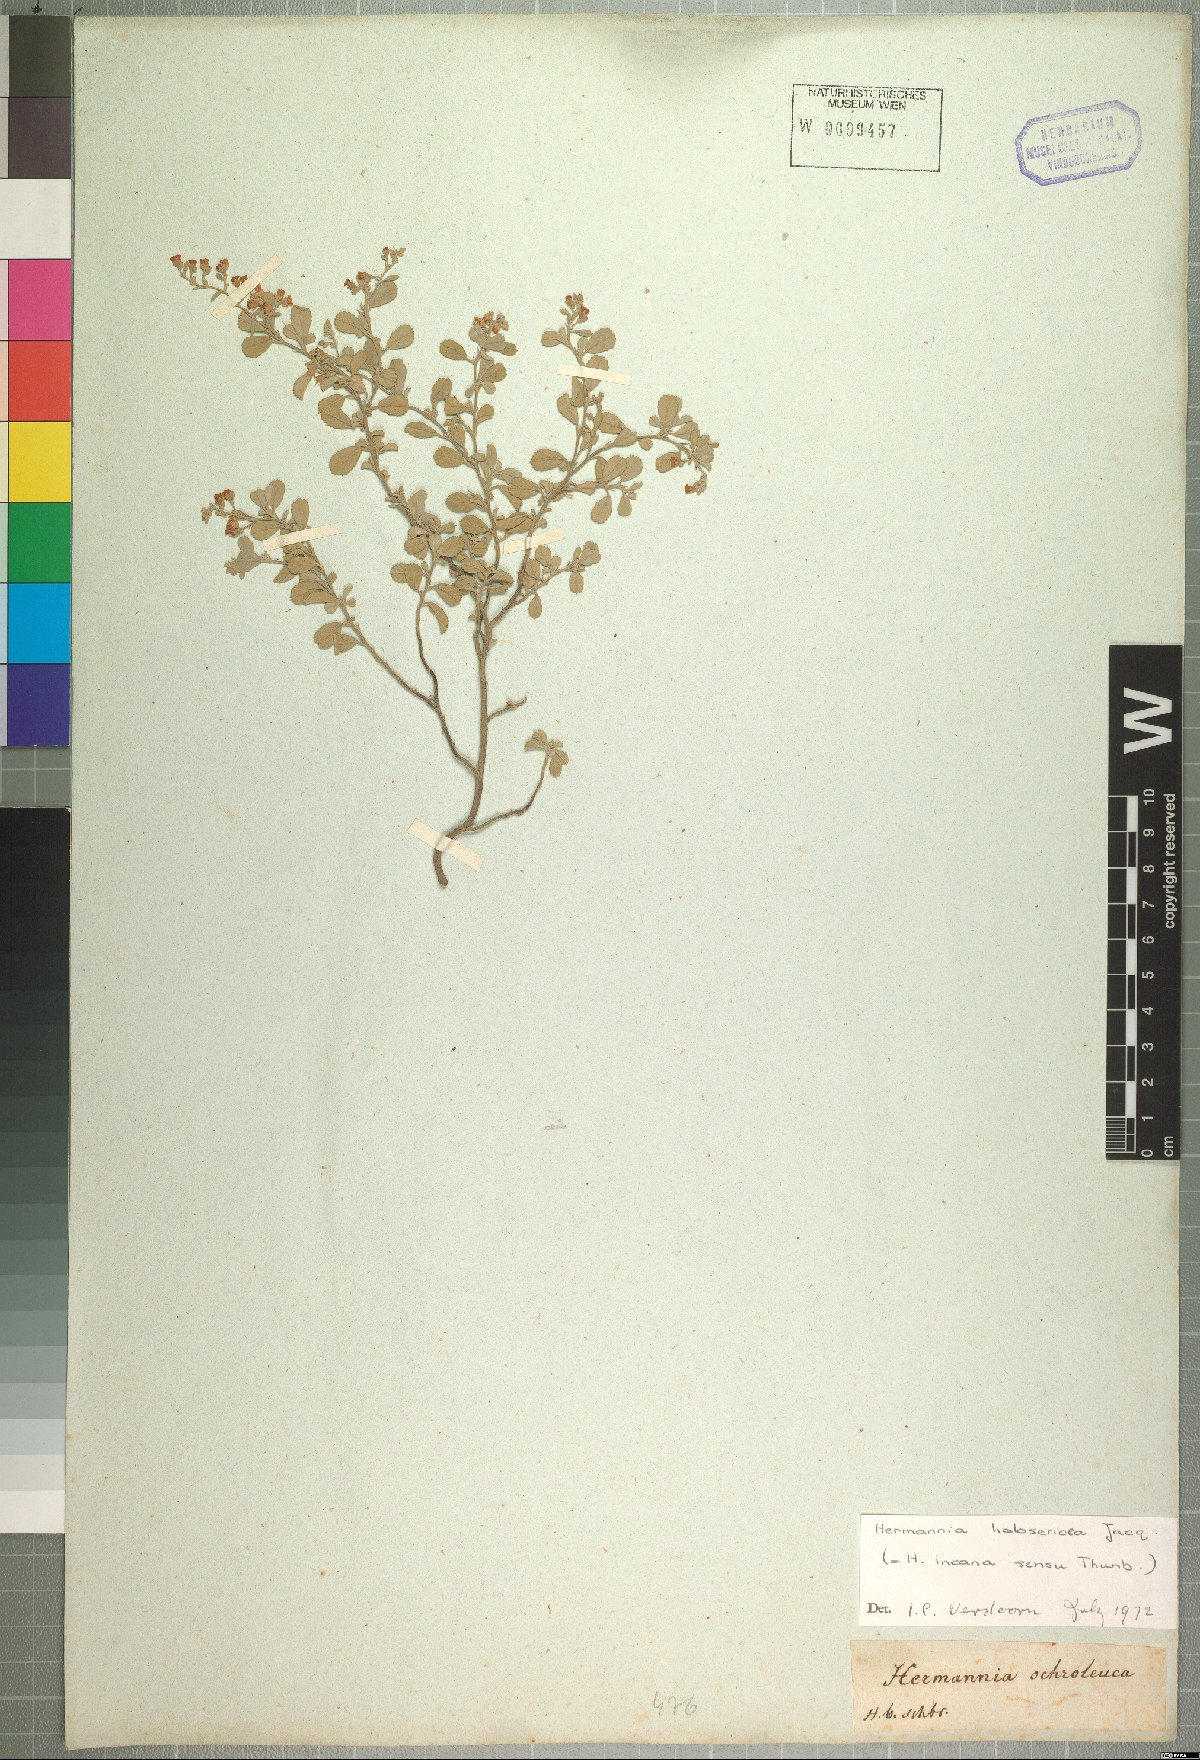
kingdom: Plantae
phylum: Tracheophyta
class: Magnoliopsida
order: Malvales
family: Malvaceae
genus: Hermannia
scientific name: Hermannia holosericea
